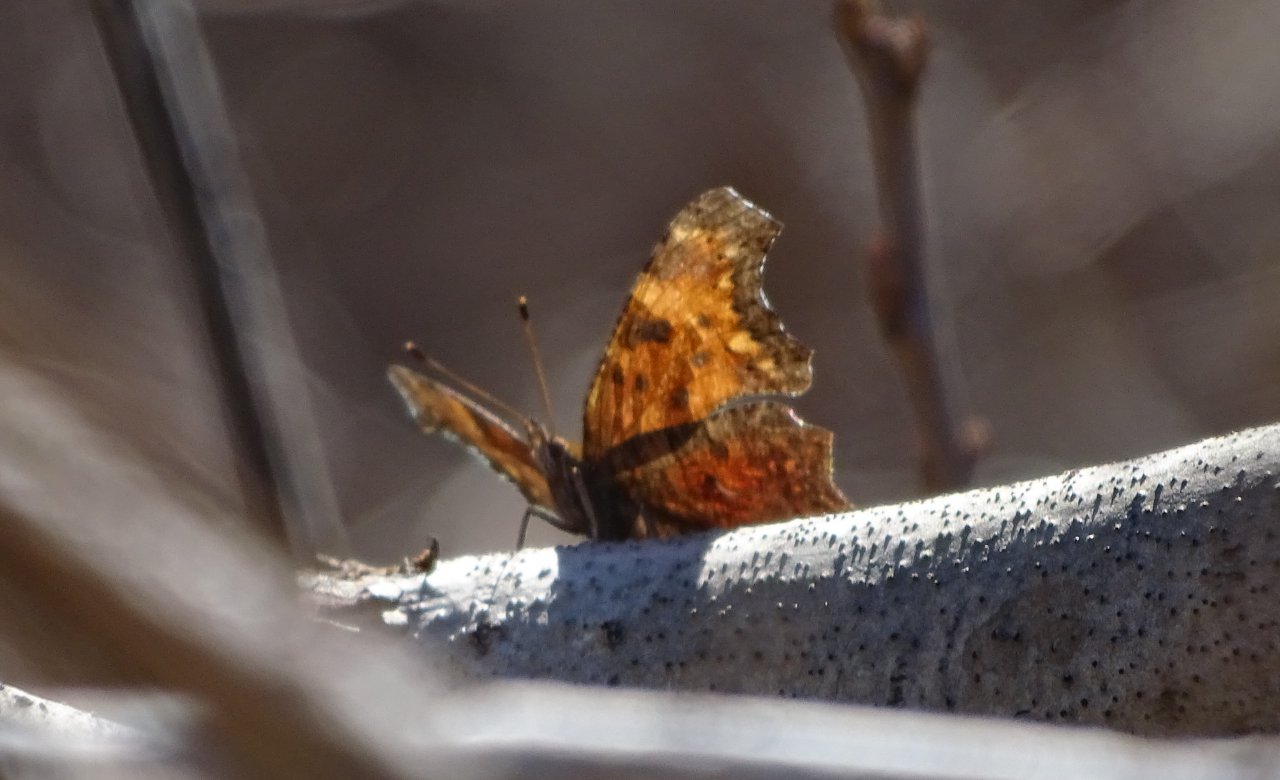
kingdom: Animalia
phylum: Arthropoda
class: Insecta
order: Lepidoptera
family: Nymphalidae
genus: Polygonia
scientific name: Polygonia comma
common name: Eastern Comma
